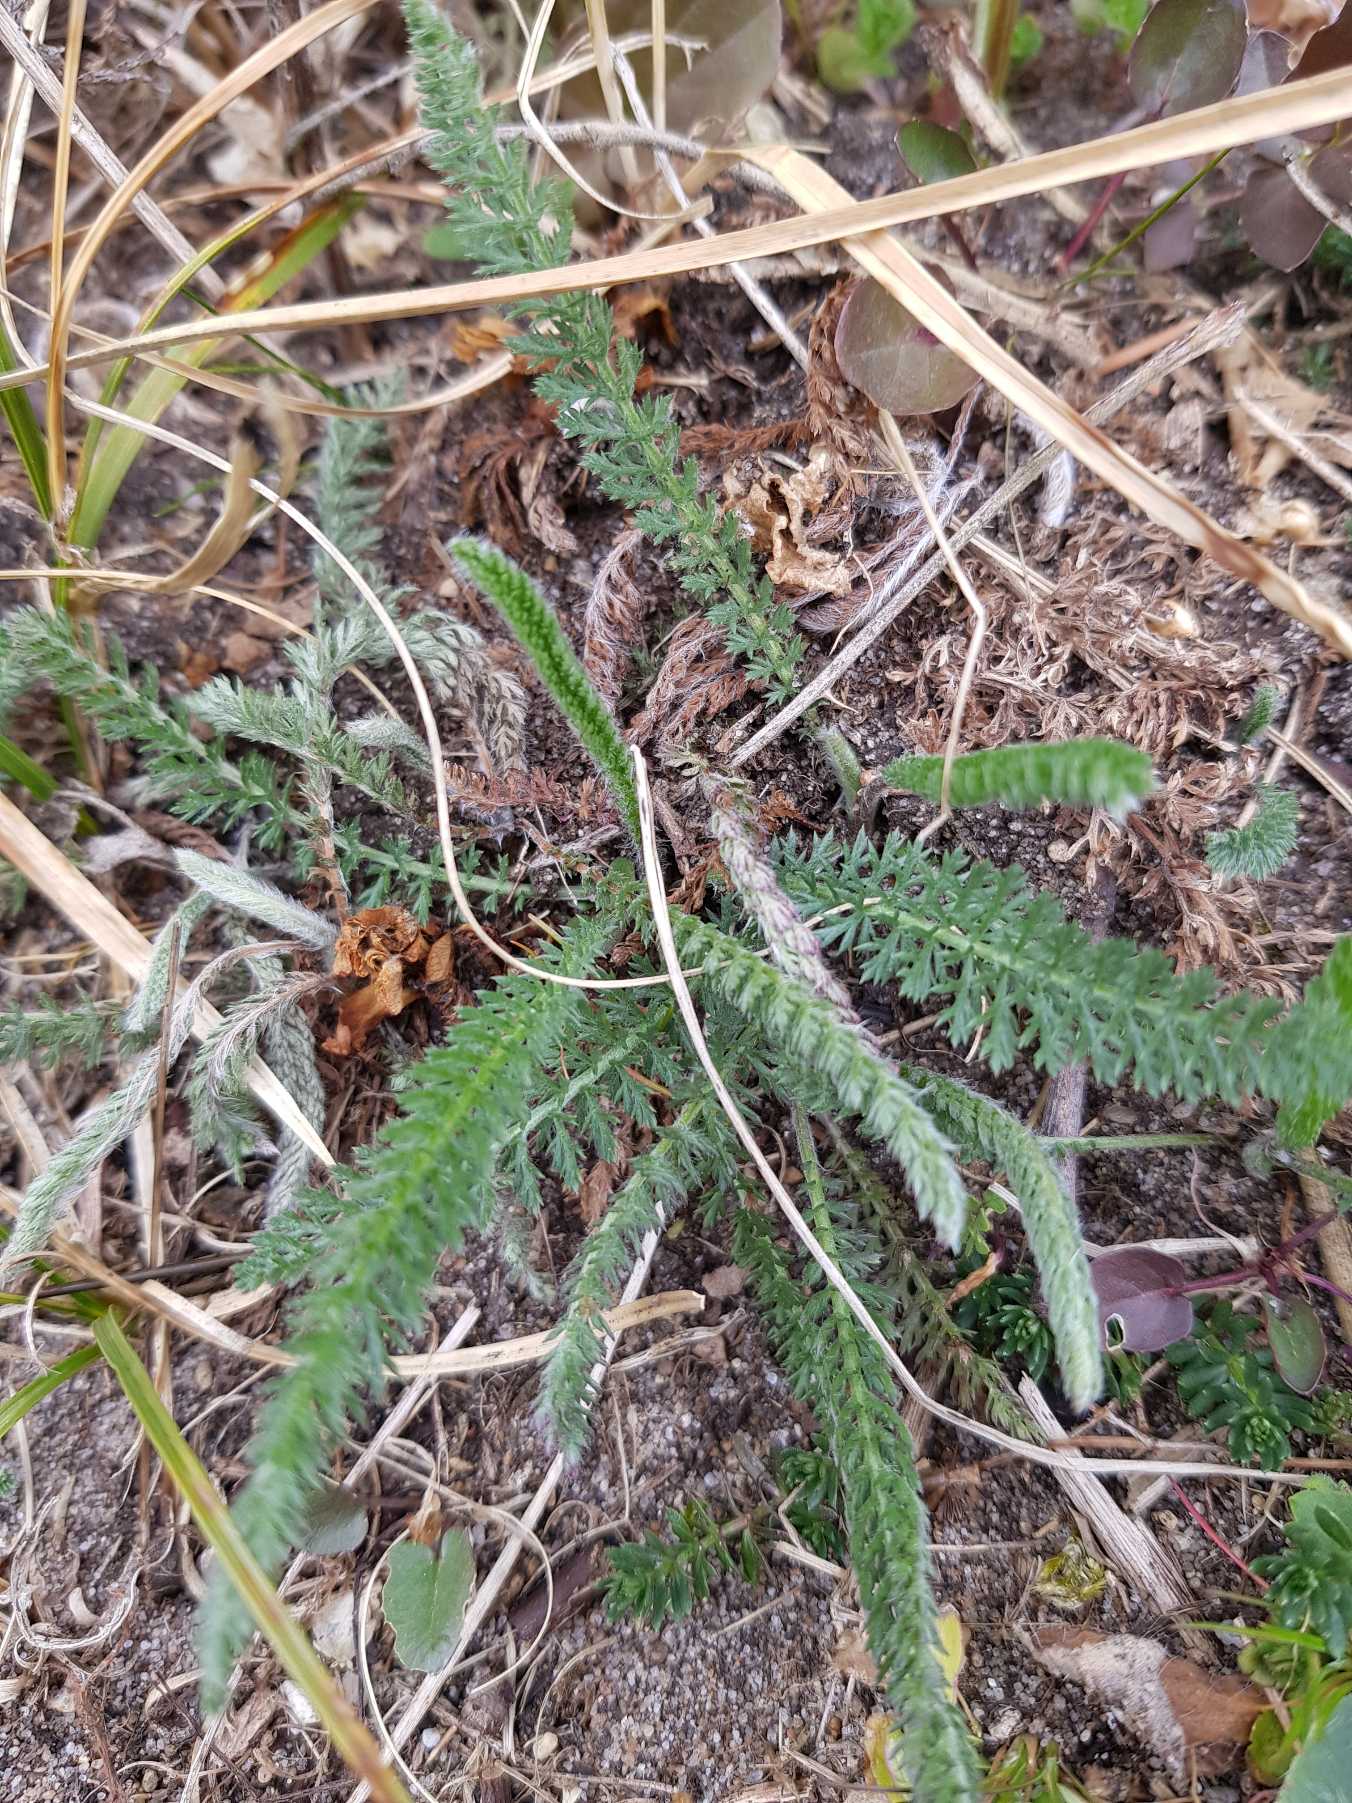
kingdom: Plantae
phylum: Tracheophyta
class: Magnoliopsida
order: Asterales
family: Asteraceae
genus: Achillea
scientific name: Achillea millefolium
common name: Almindelig røllike
